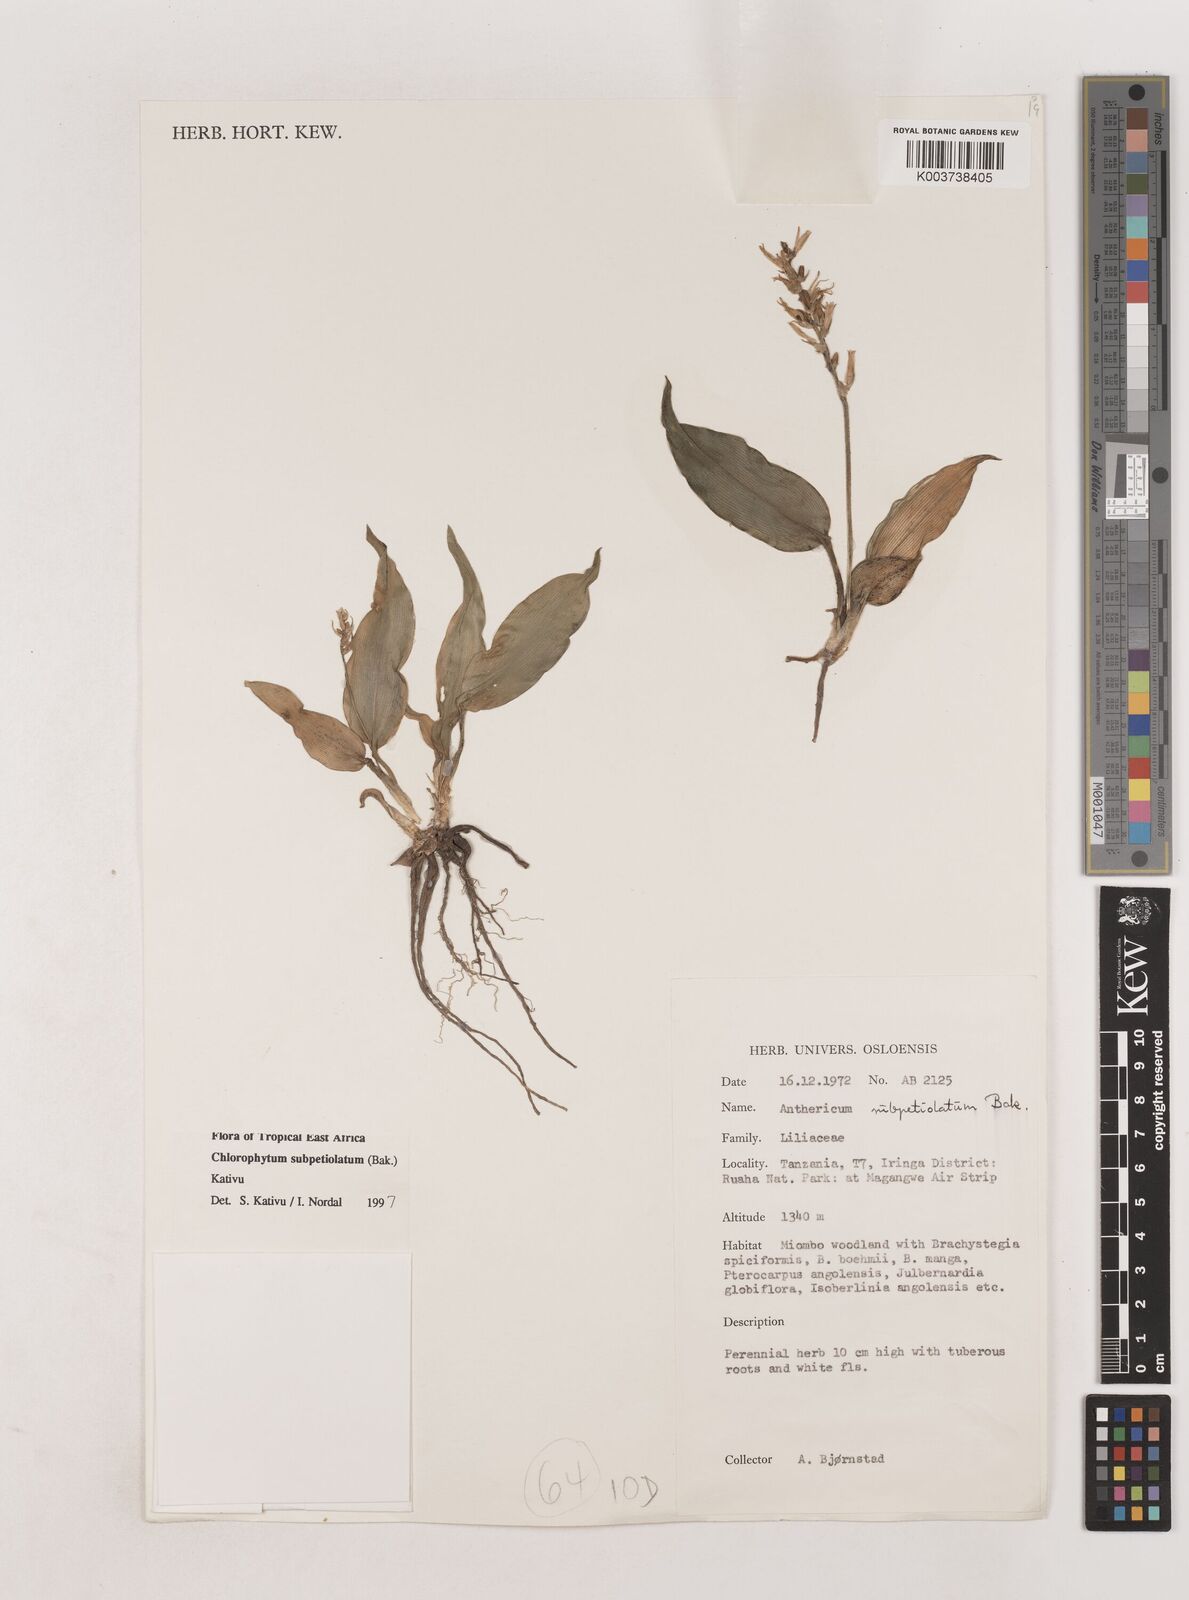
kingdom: Plantae
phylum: Tracheophyta
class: Liliopsida
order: Asparagales
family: Asparagaceae
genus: Chlorophytum
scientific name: Chlorophytum subpetiolatum
